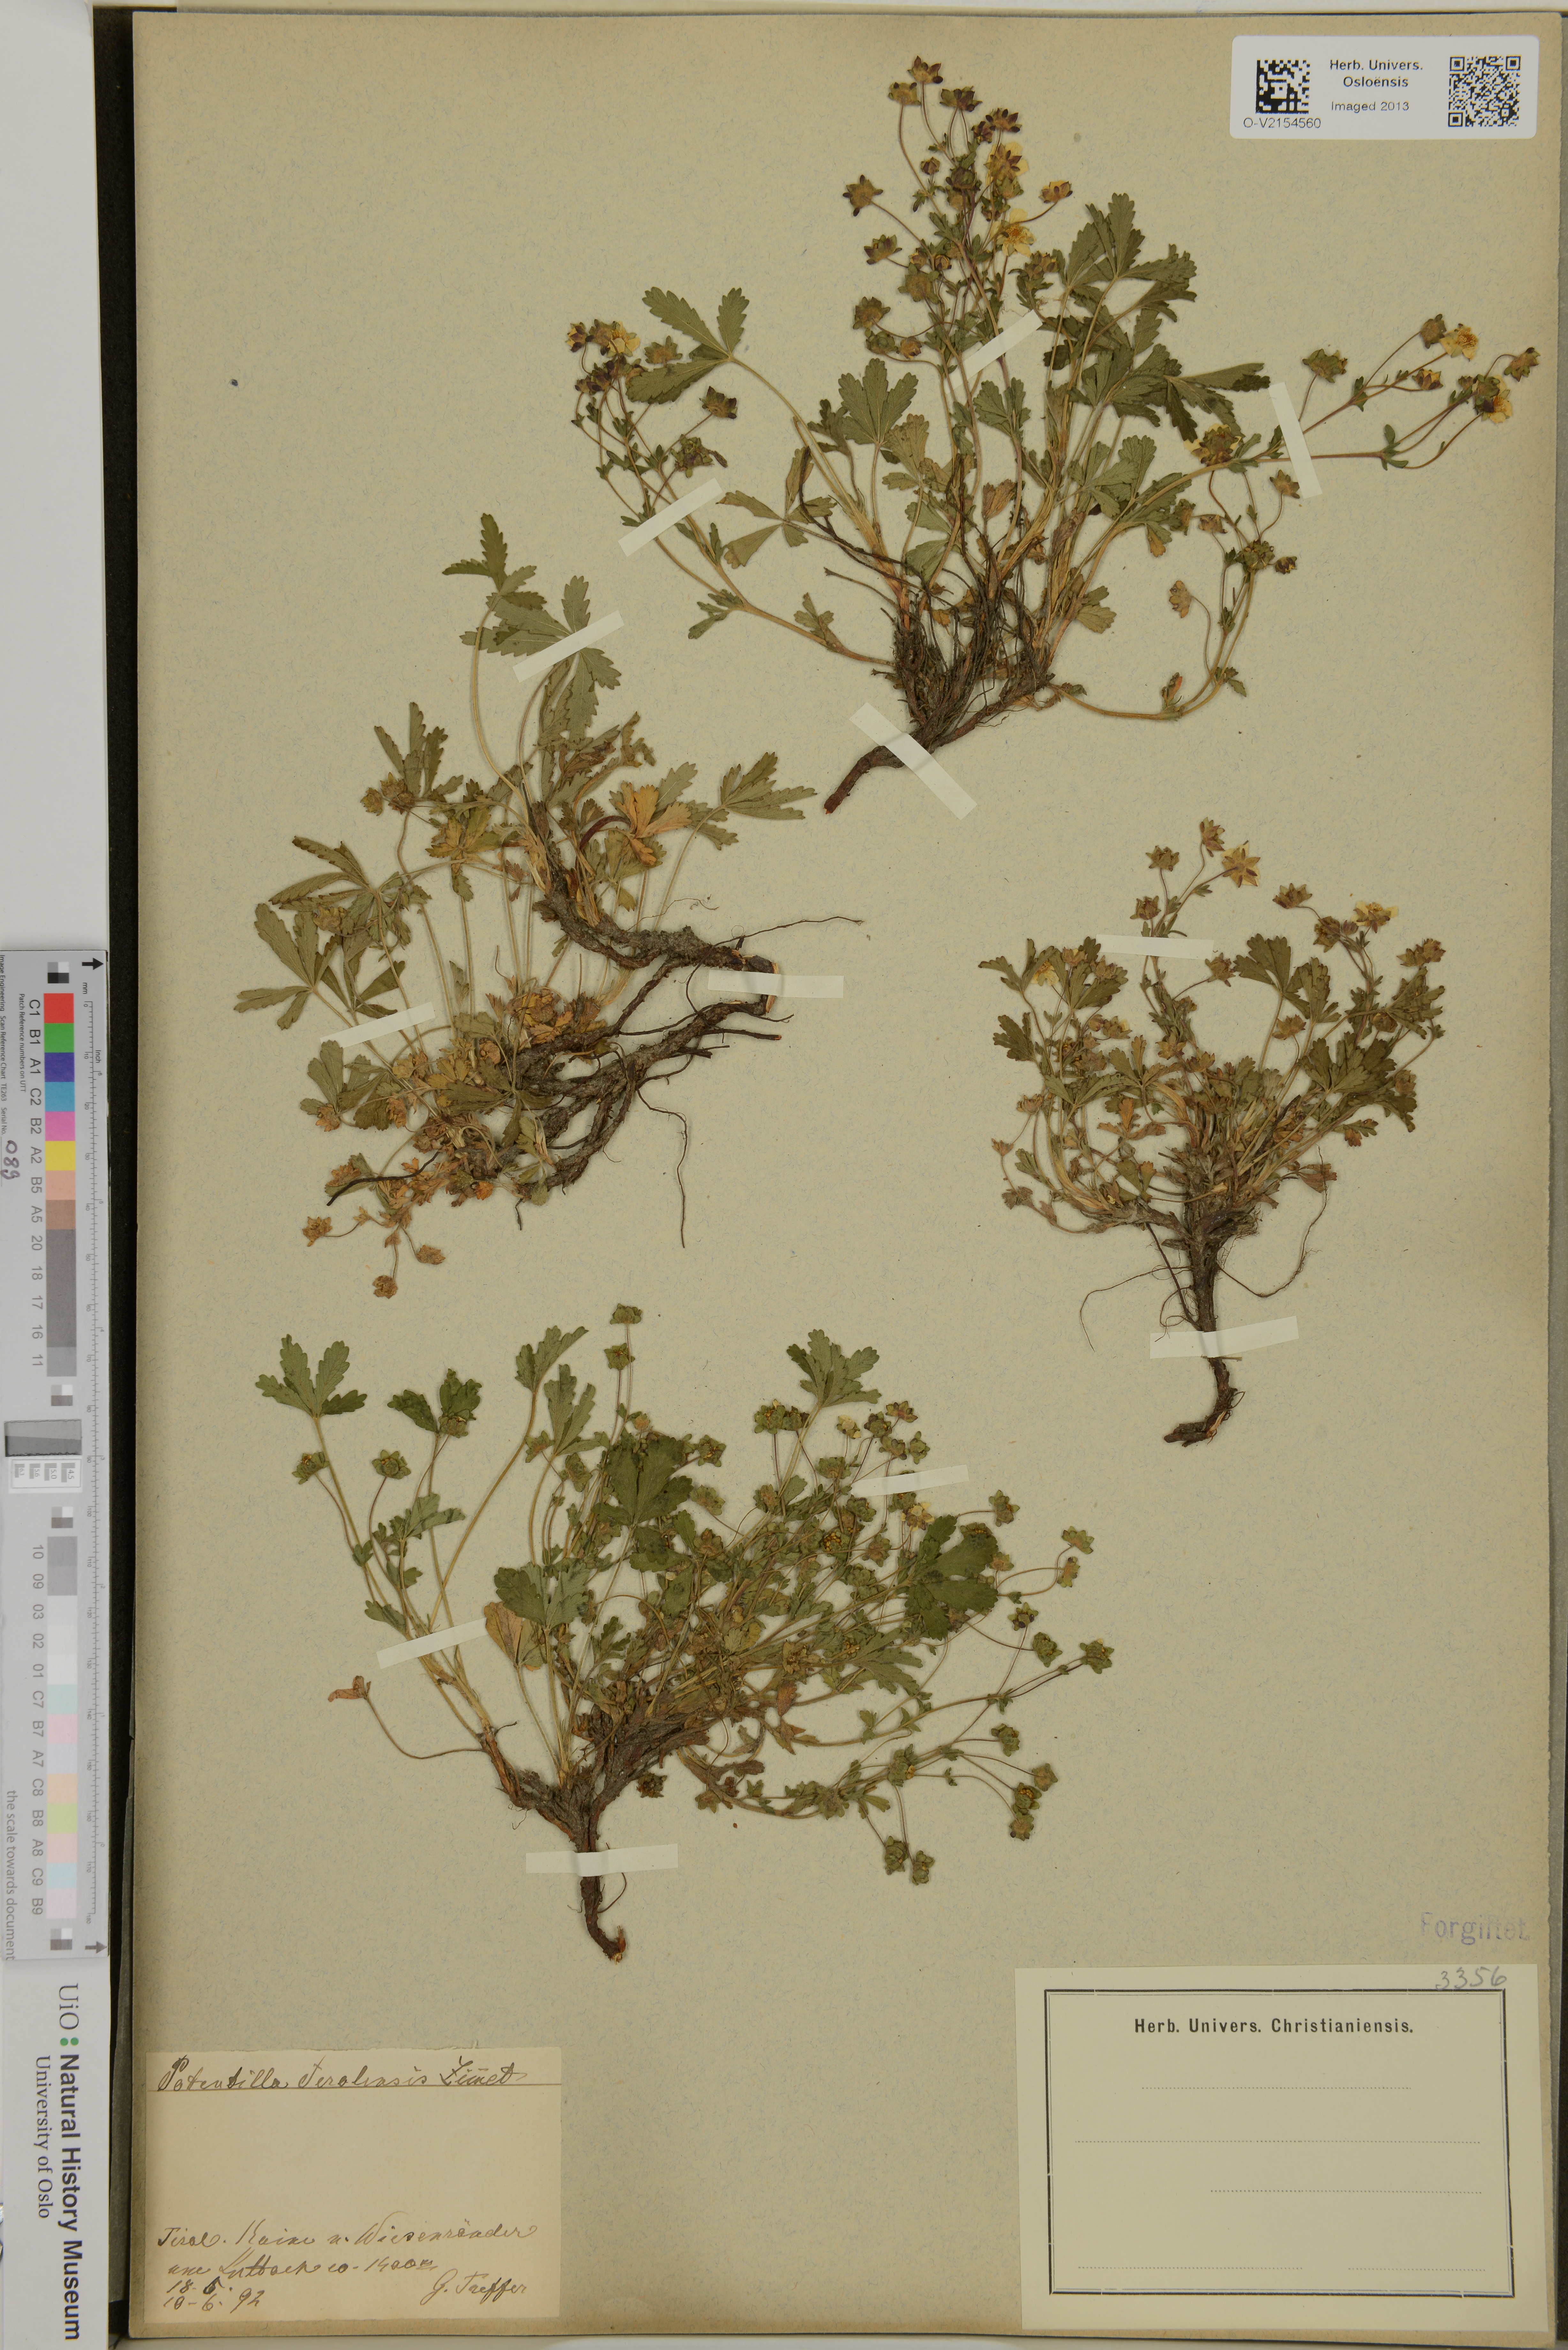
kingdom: Plantae
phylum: Tracheophyta
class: Magnoliopsida
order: Rosales
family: Rosaceae
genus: Potentilla
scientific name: Potentilla tiroliensis
